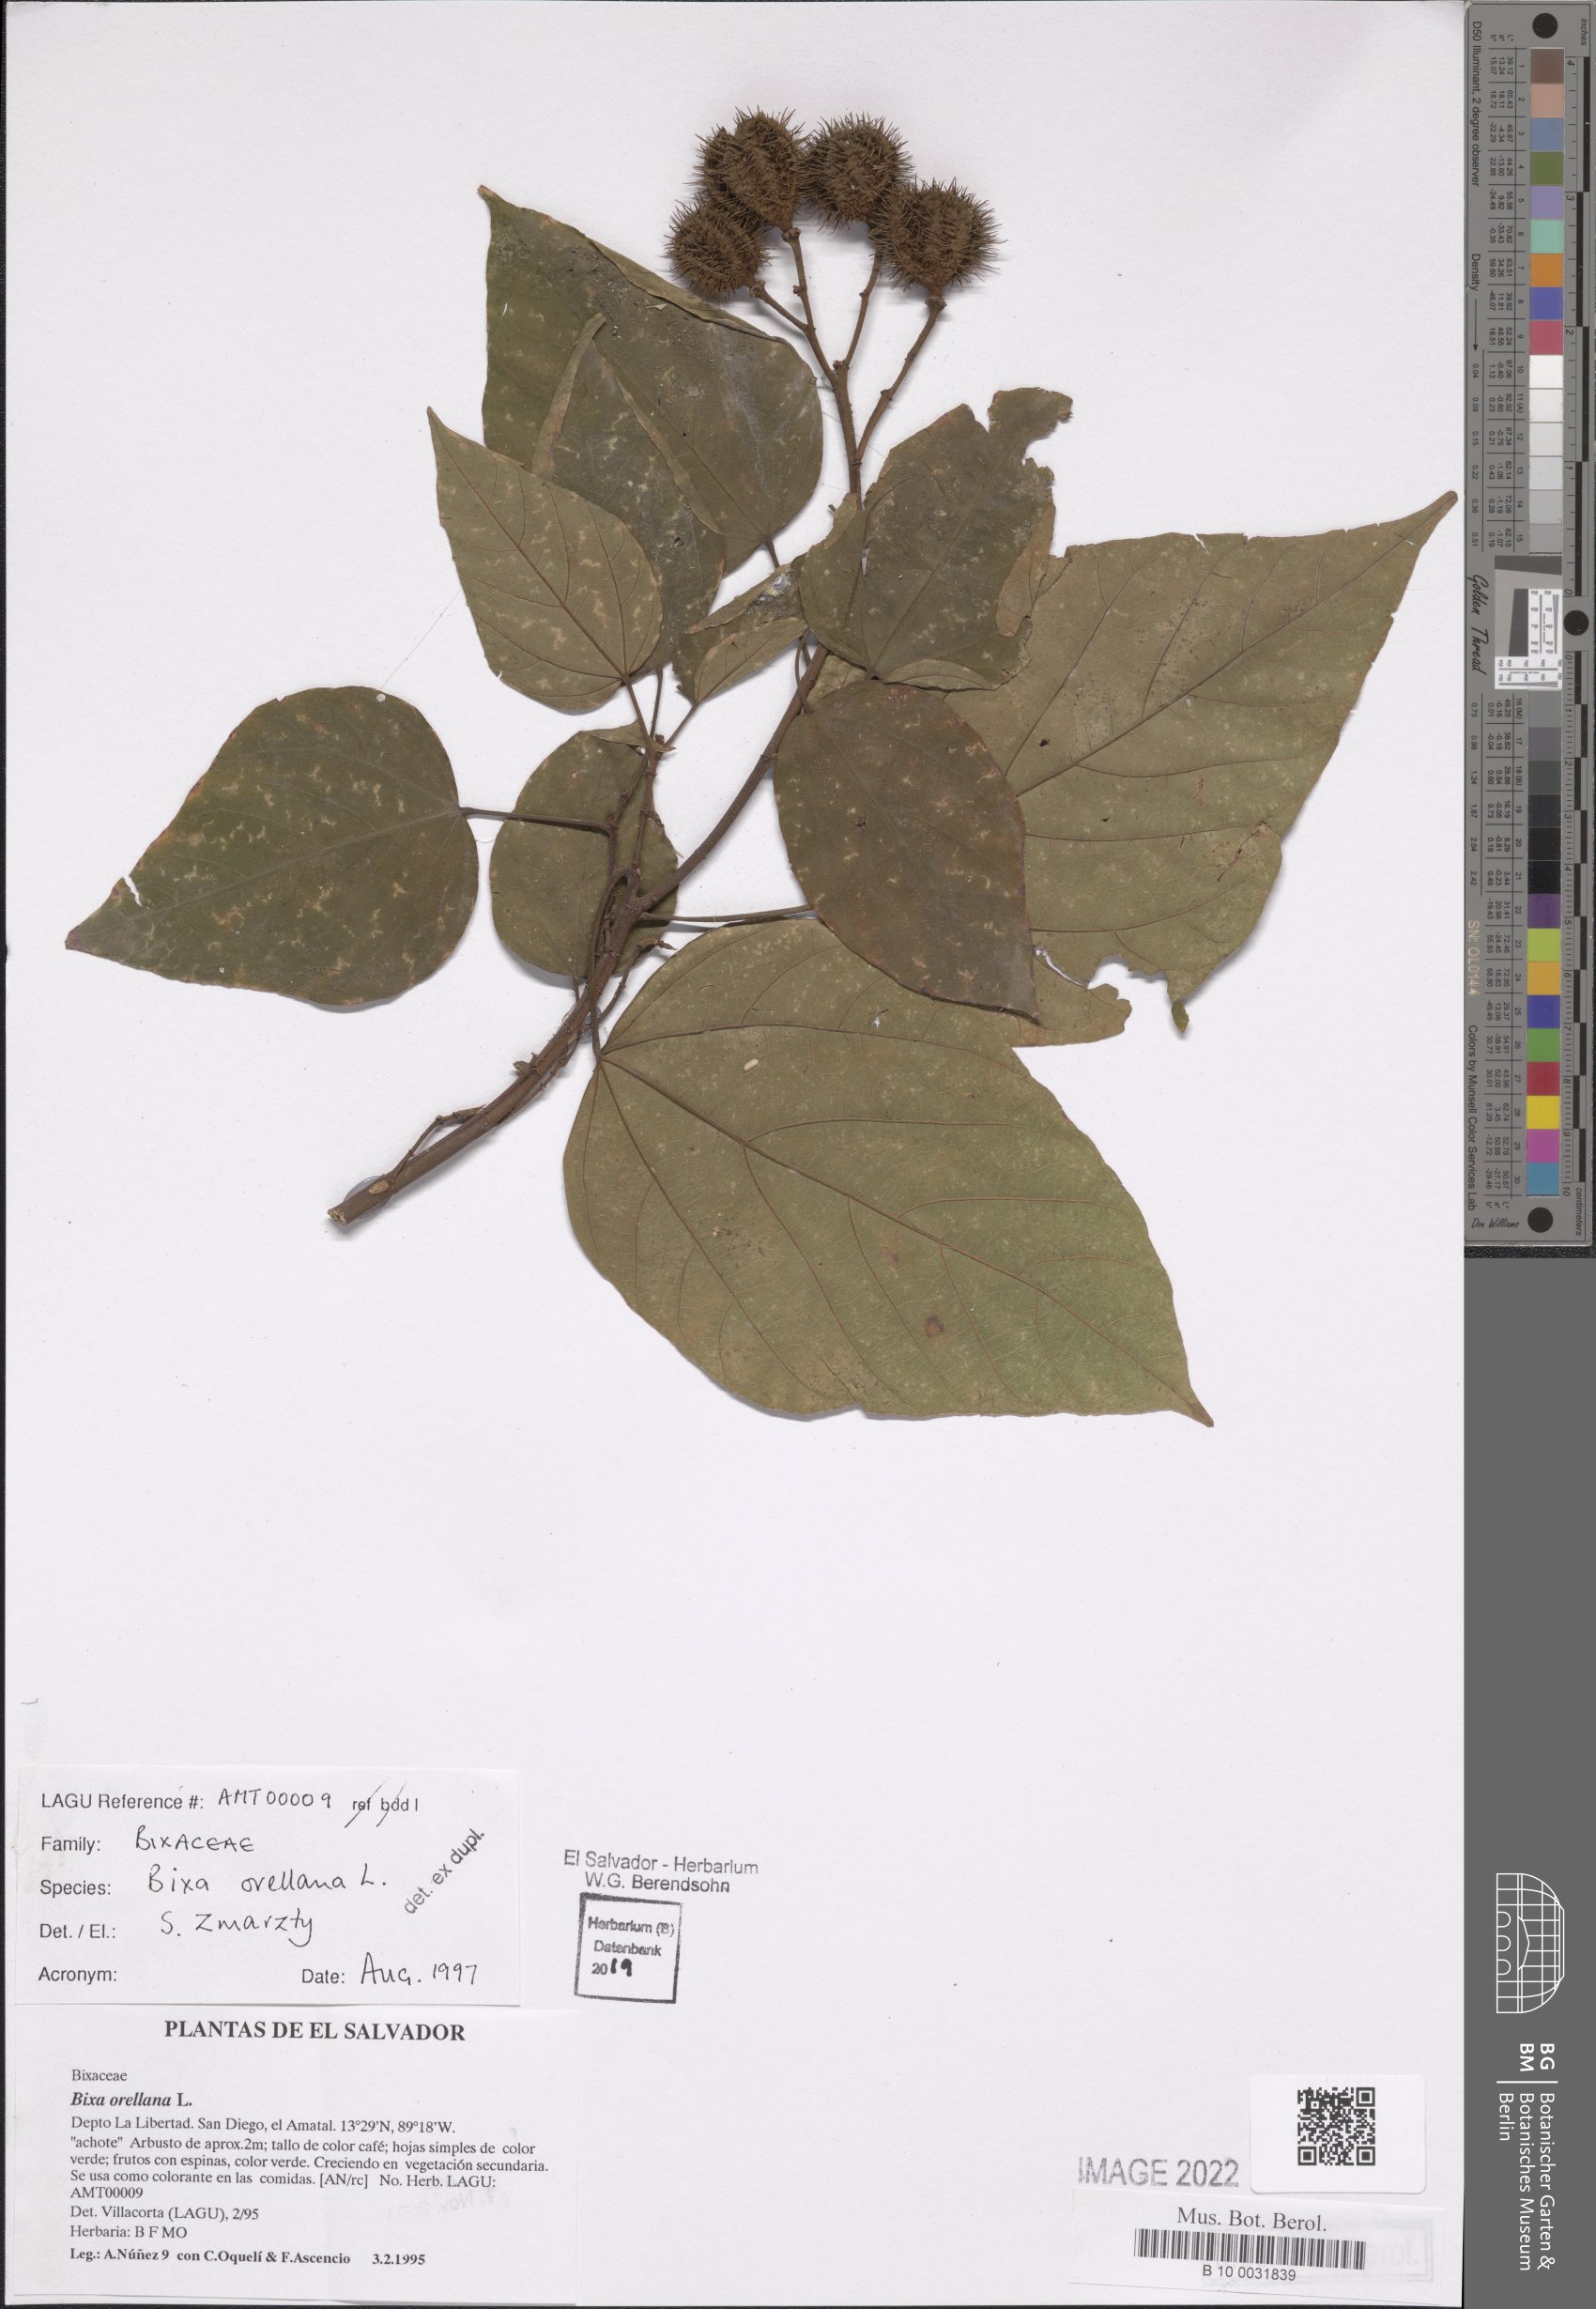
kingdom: Plantae
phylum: Tracheophyta
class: Magnoliopsida
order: Malvales
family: Bixaceae
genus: Bixa
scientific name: Bixa orellana
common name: Lipsticktree
